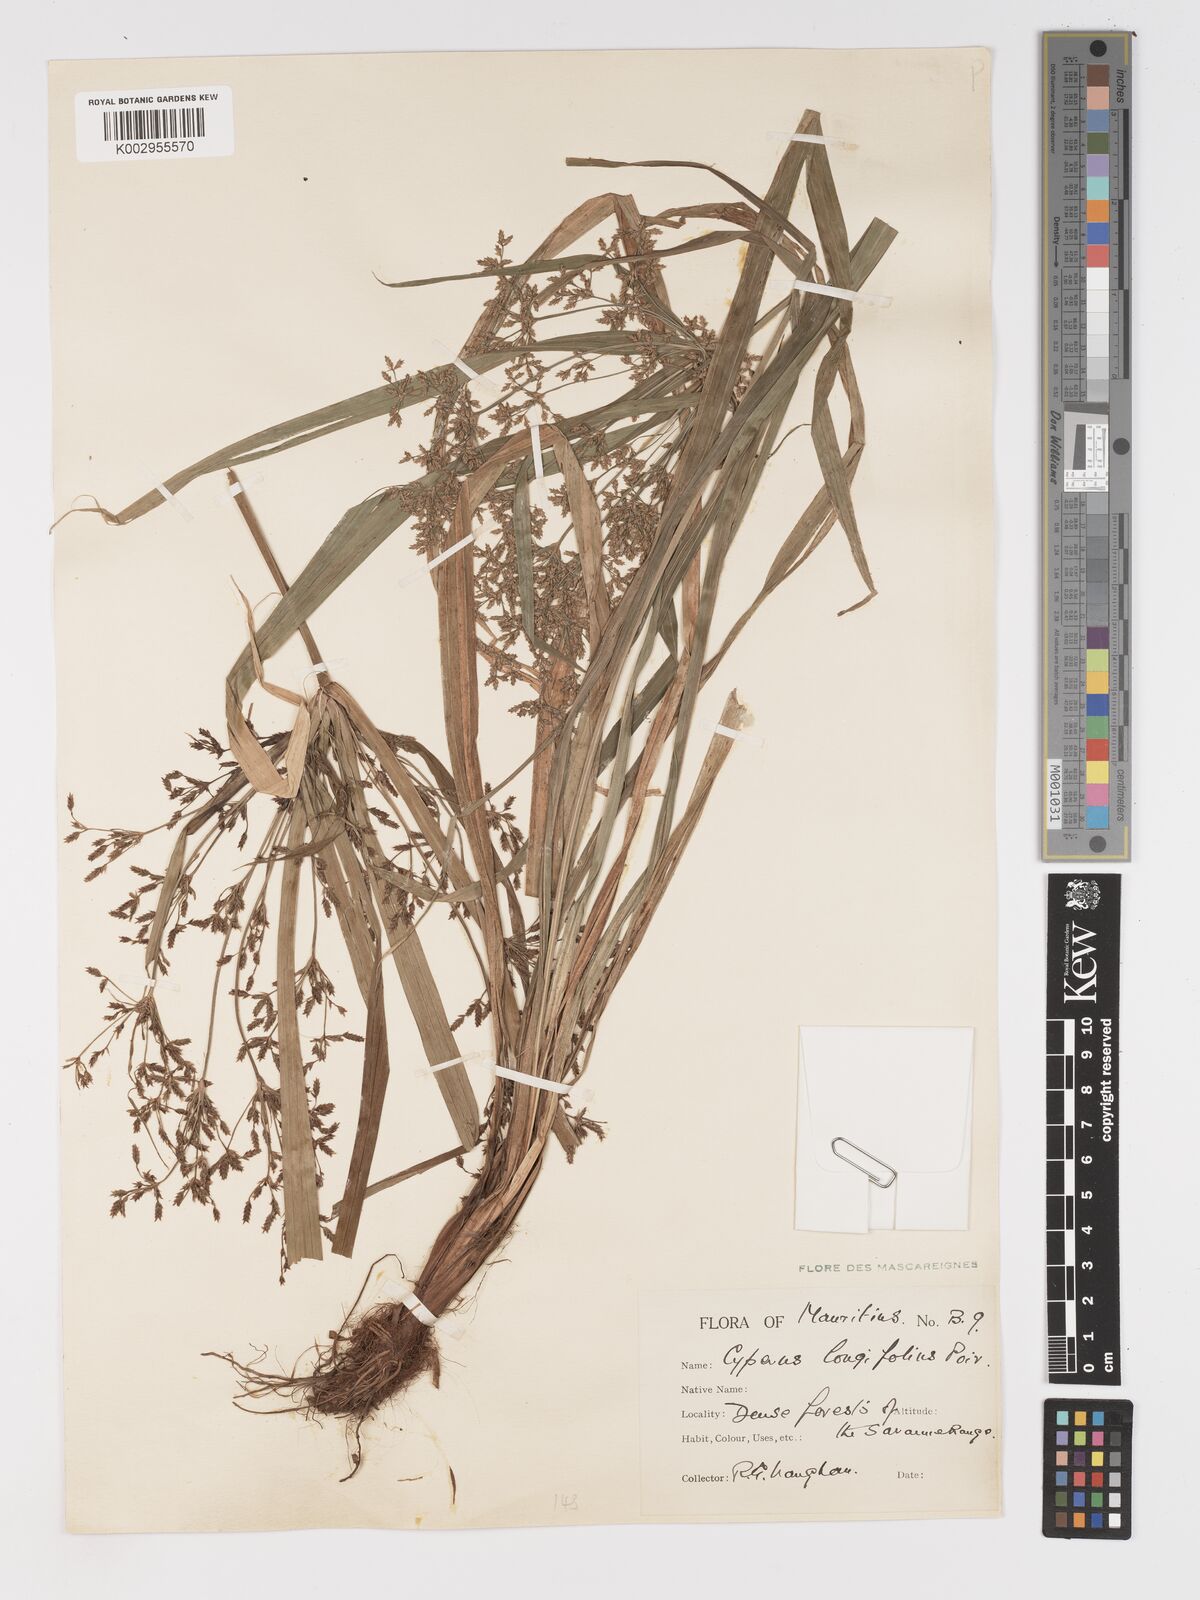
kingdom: Plantae
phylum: Tracheophyta
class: Liliopsida
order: Poales
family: Cyperaceae
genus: Cyperus
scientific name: Cyperus longifolius
